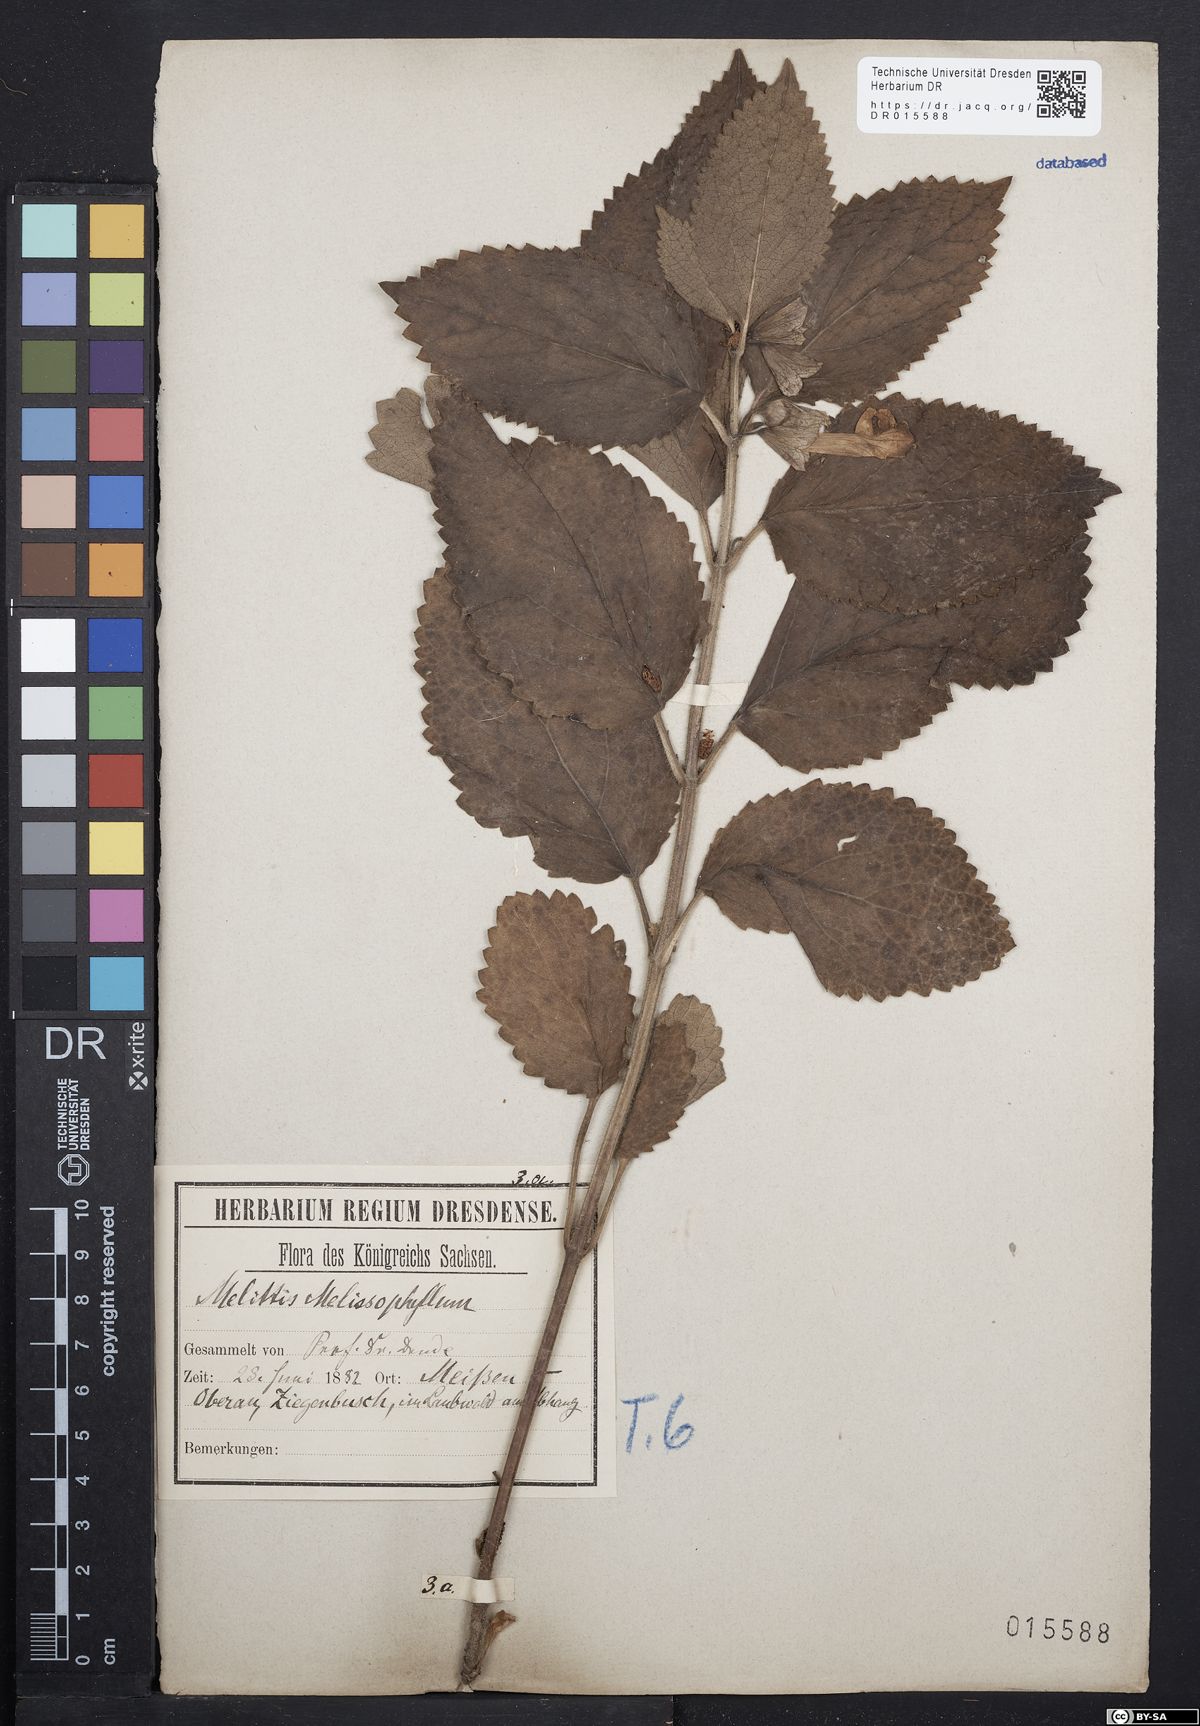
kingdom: Plantae
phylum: Tracheophyta
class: Magnoliopsida
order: Lamiales
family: Lamiaceae
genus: Melittis
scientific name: Melittis melissophyllum
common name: Bastard balm
